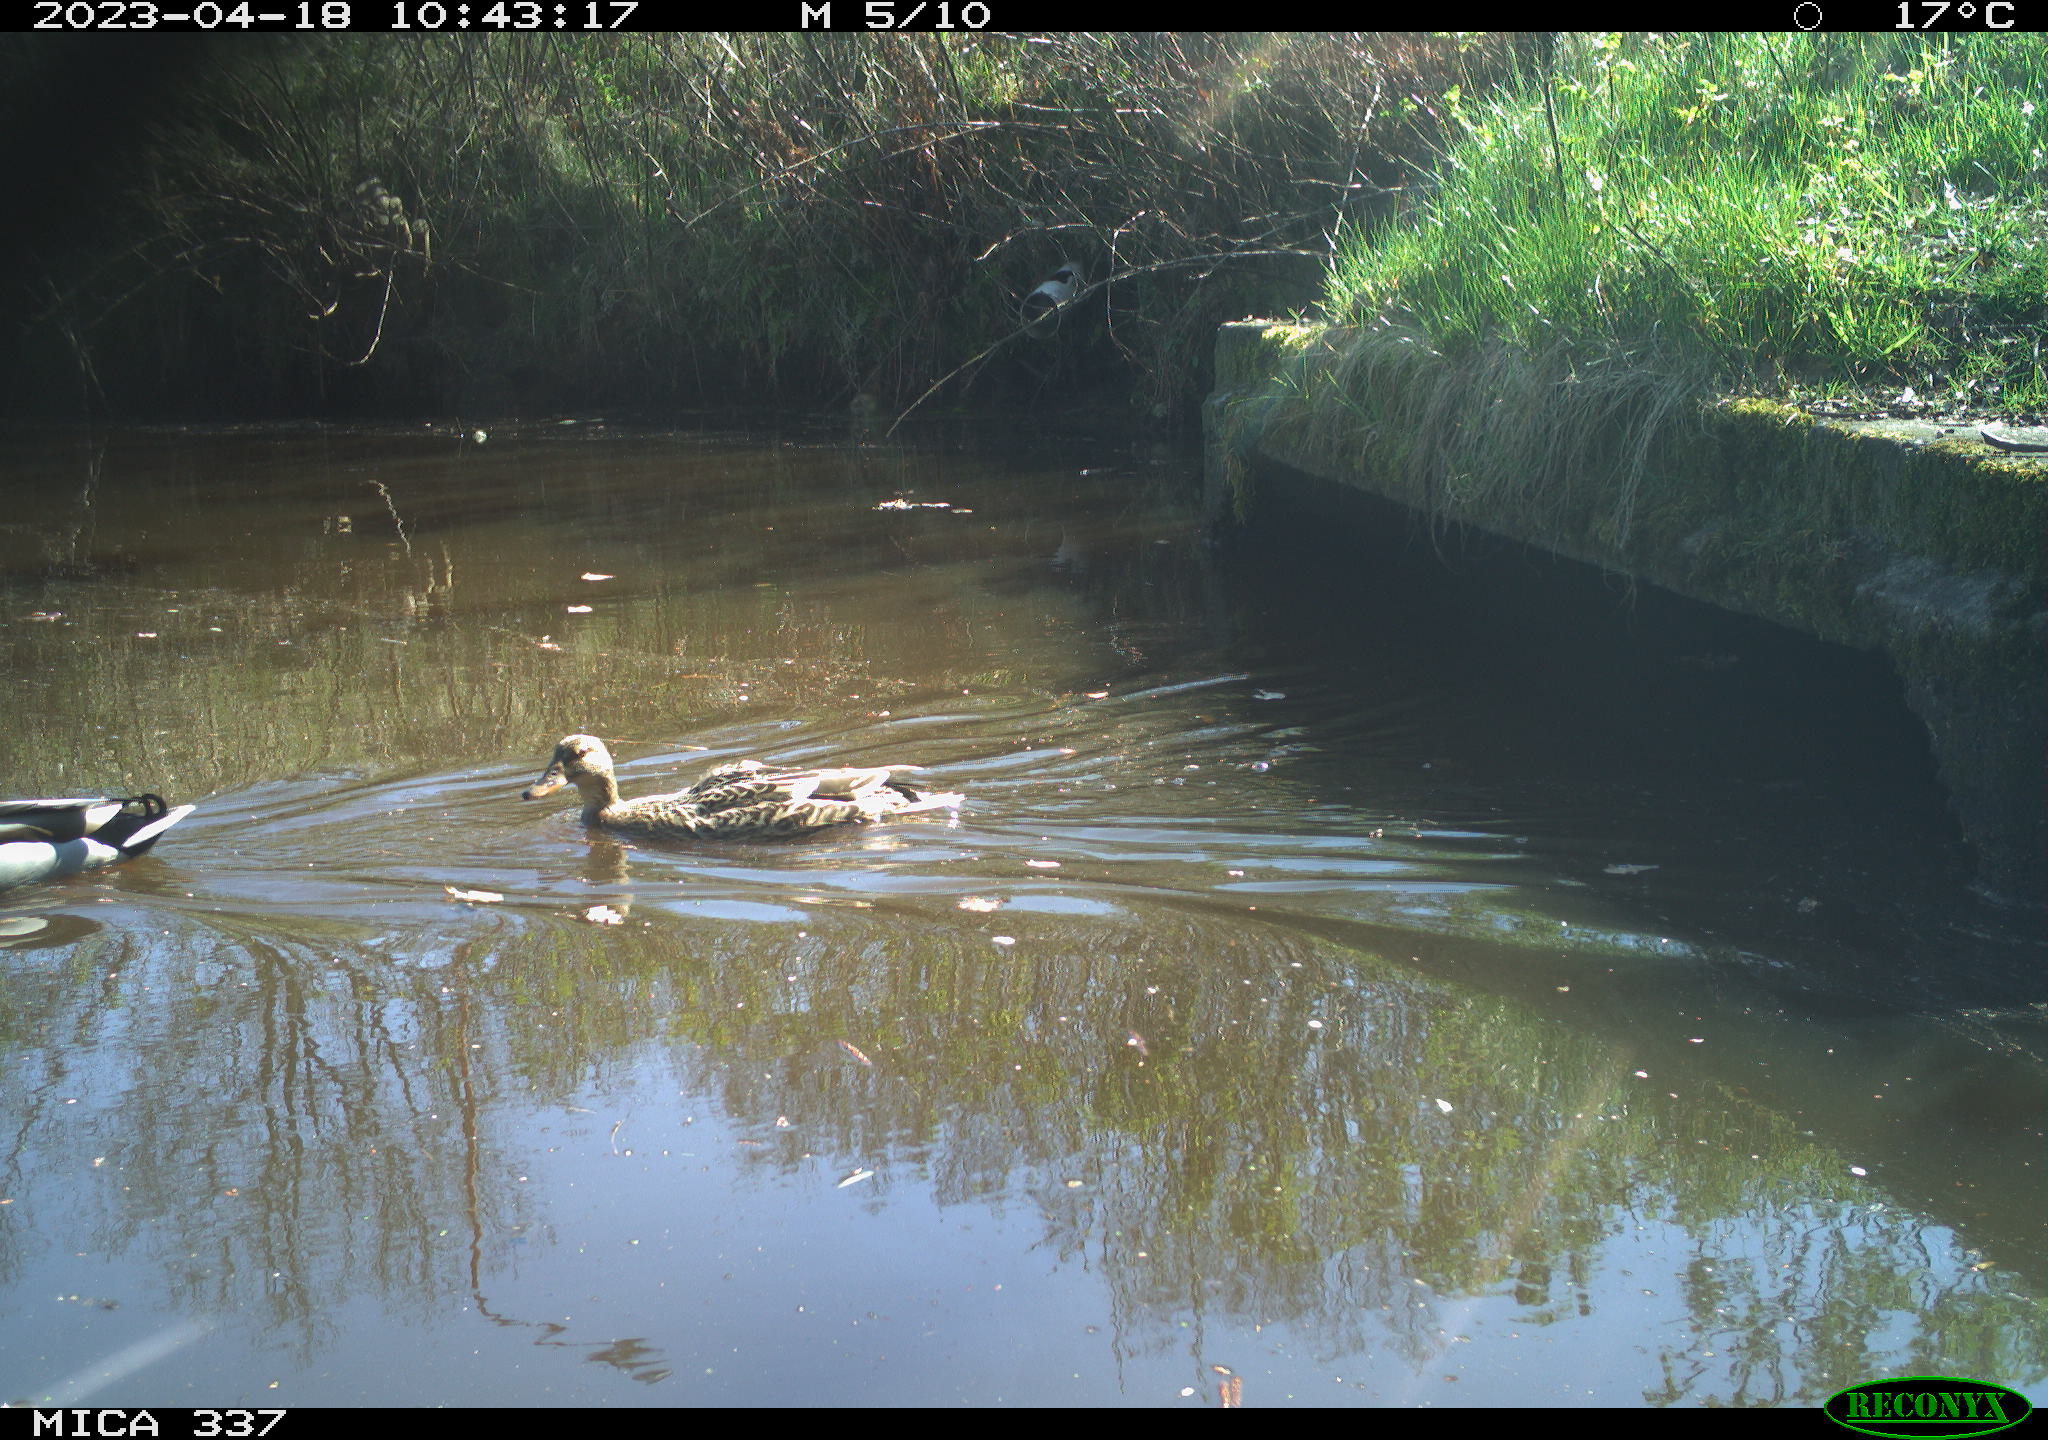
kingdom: Animalia
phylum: Chordata
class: Aves
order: Anseriformes
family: Anatidae
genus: Anas
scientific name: Anas platyrhynchos
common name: Mallard
